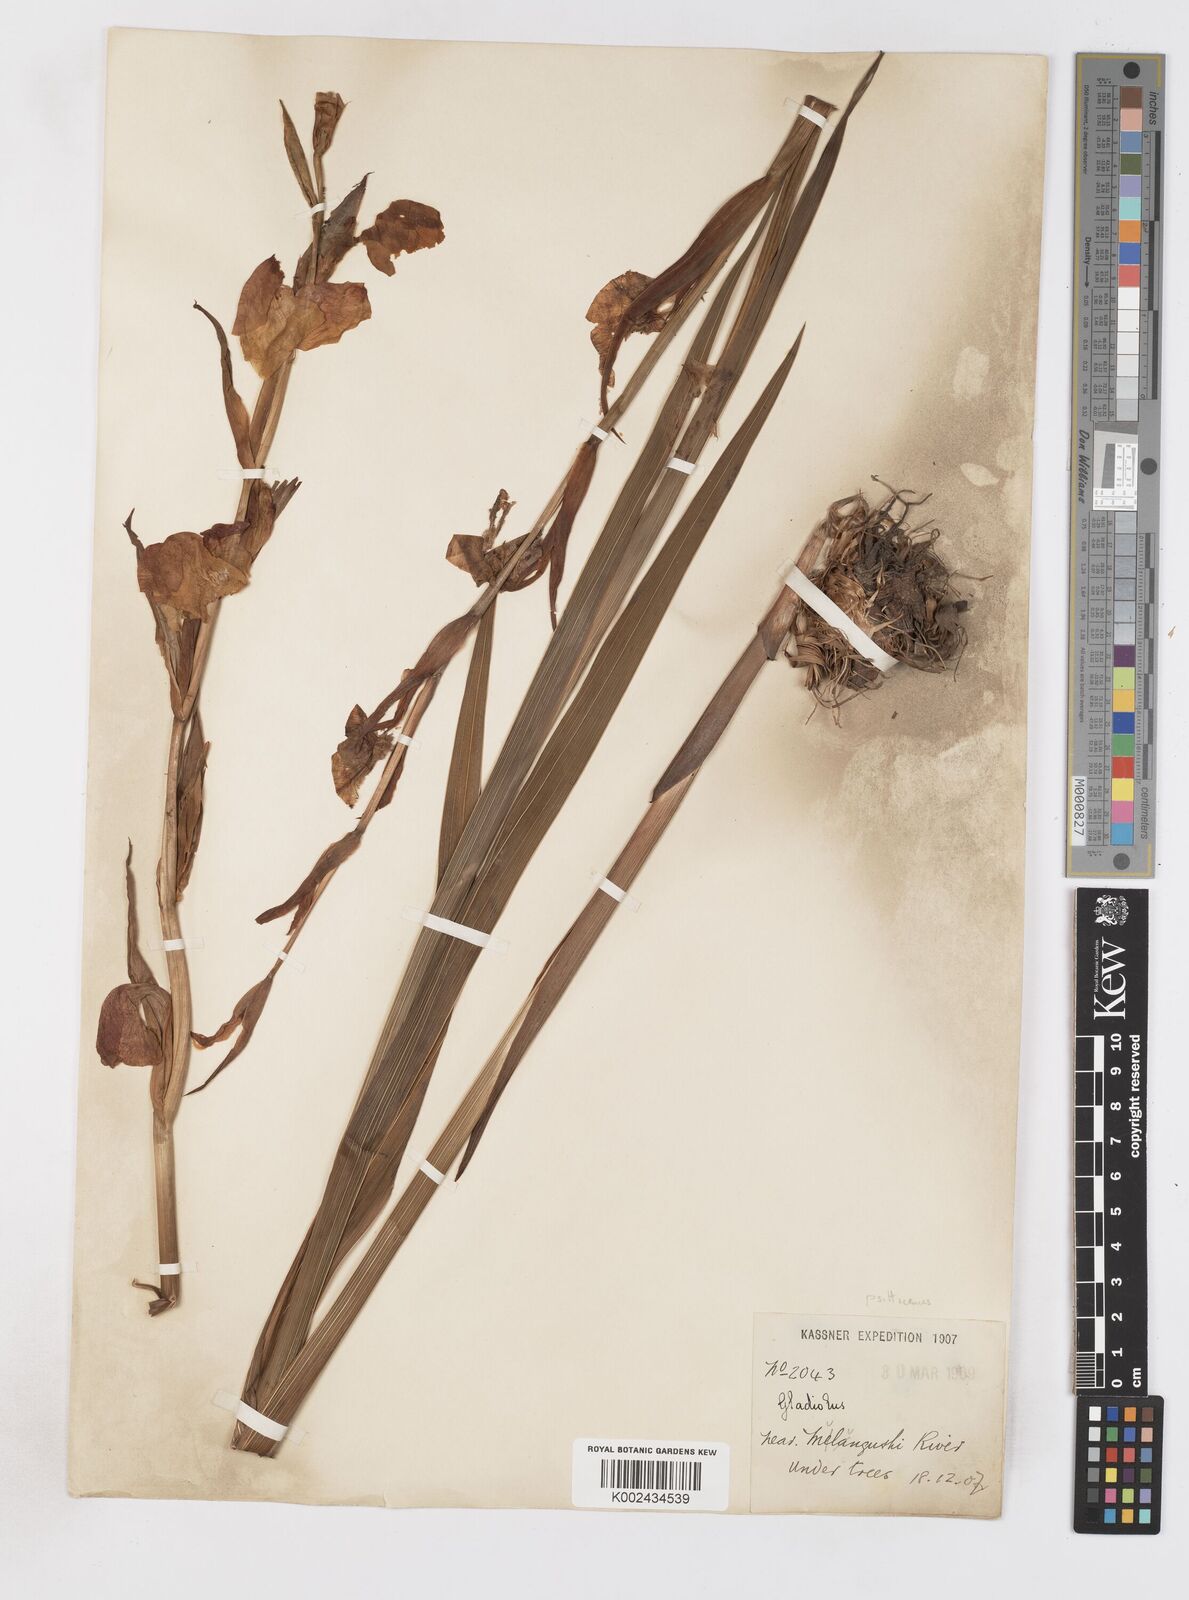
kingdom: Plantae
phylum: Tracheophyta
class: Liliopsida
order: Asparagales
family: Iridaceae
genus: Gladiolus
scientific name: Gladiolus dalenii
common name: Cornflag
